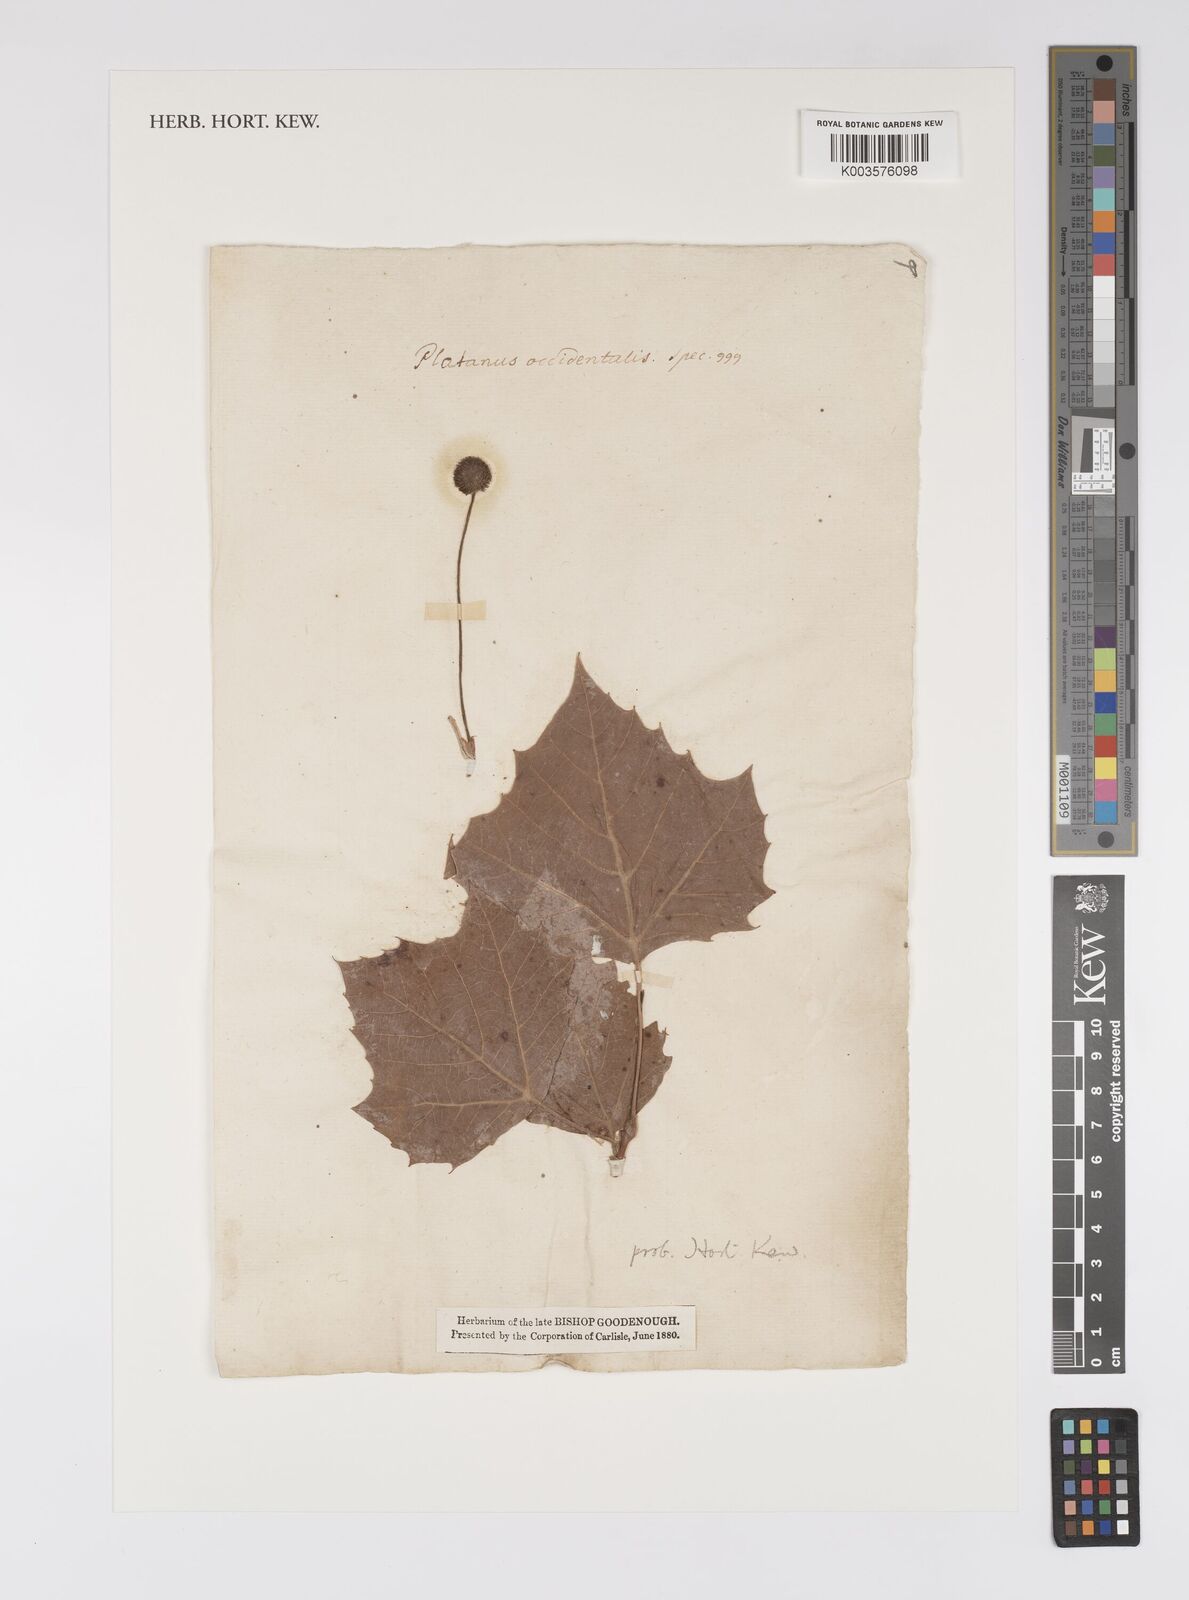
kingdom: Plantae
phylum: Tracheophyta
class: Magnoliopsida
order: Proteales
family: Platanaceae
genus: Platanus
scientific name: Platanus occidentalis
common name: American sycamore
